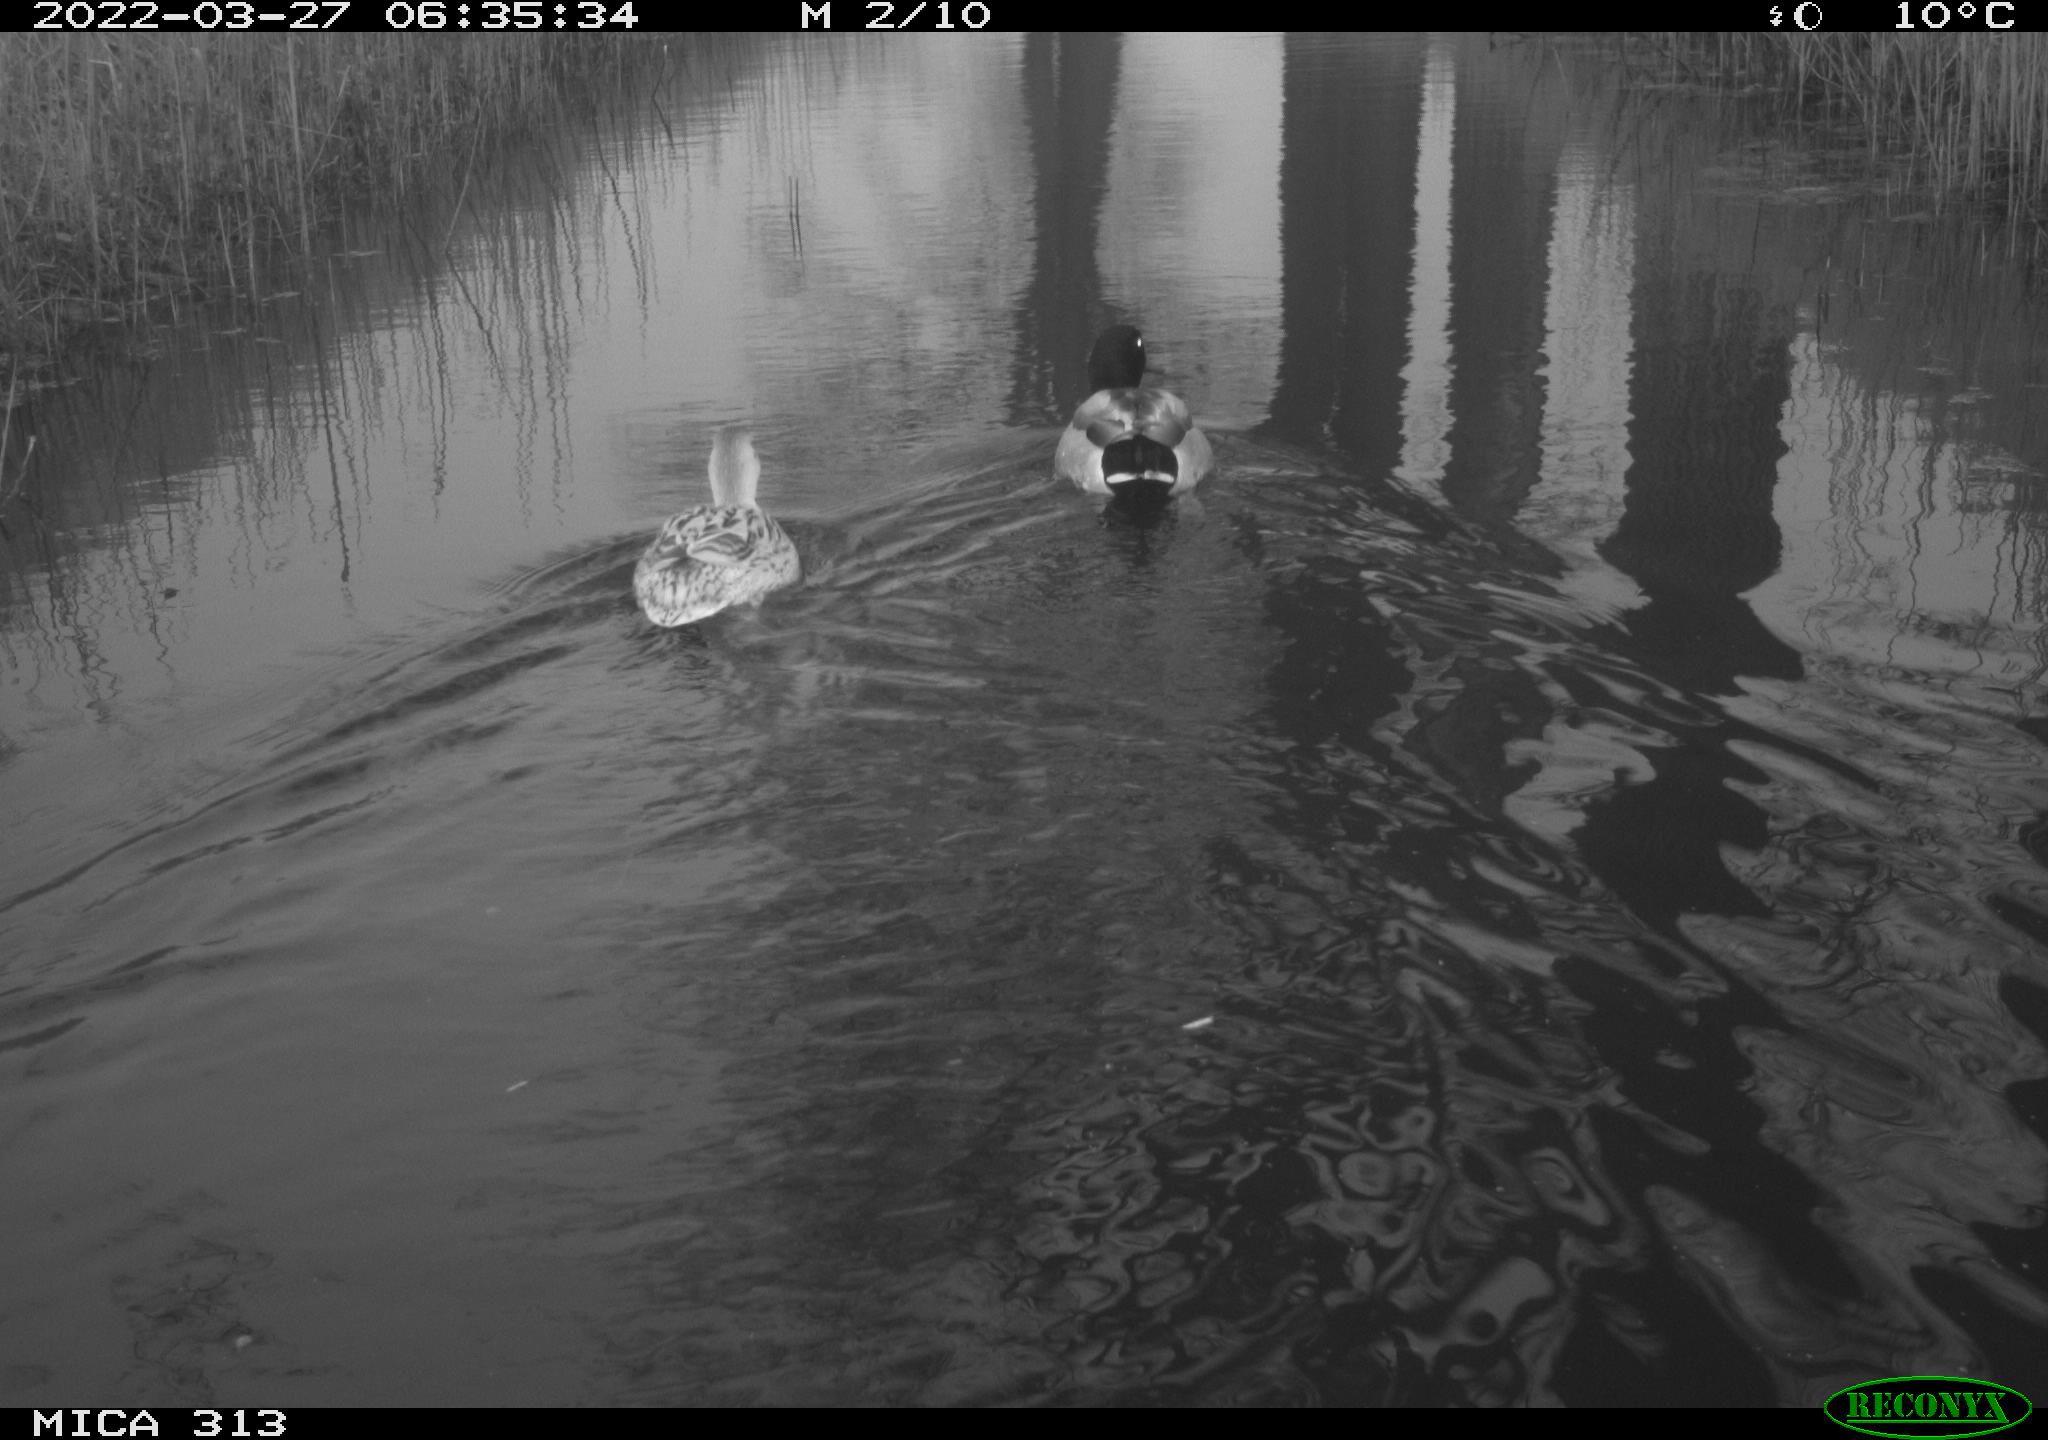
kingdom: Animalia
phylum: Chordata
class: Aves
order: Anseriformes
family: Anatidae
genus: Anas
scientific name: Anas platyrhynchos
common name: Mallard
